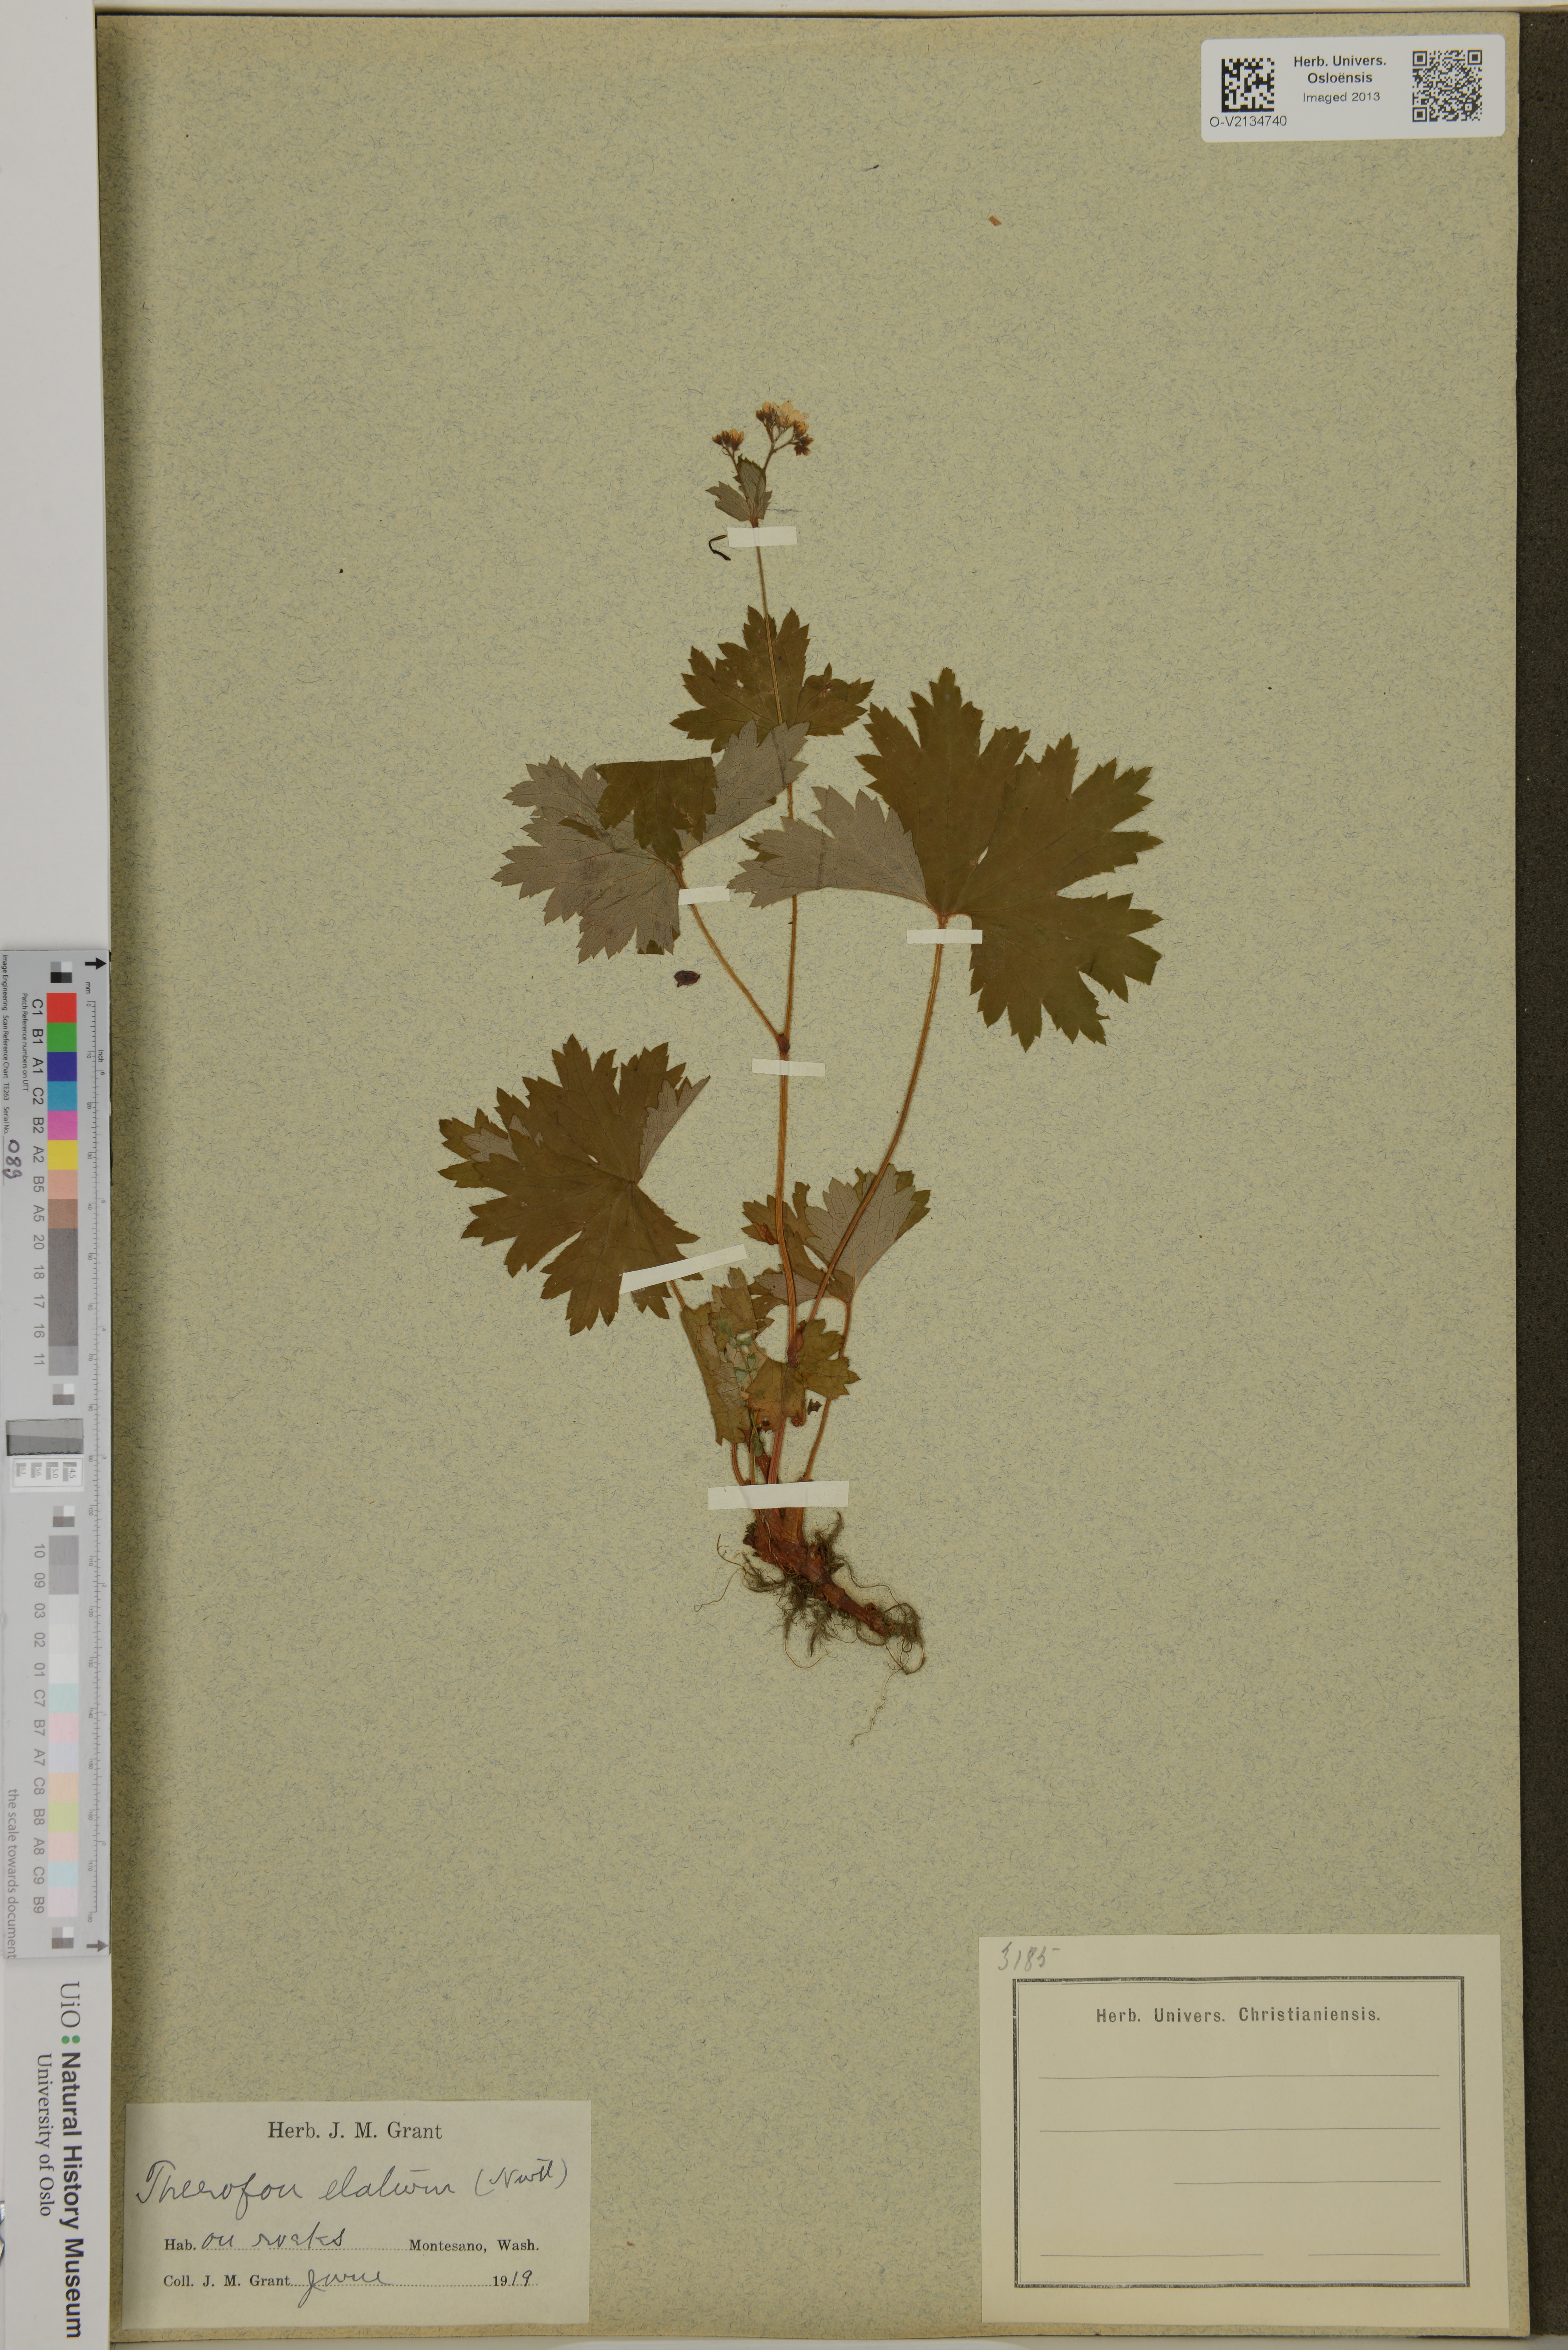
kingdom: Plantae
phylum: Tracheophyta
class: Magnoliopsida
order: Saxifragales
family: Saxifragaceae
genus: Boykinia
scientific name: Boykinia occidentalis
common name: Coast boykinia
